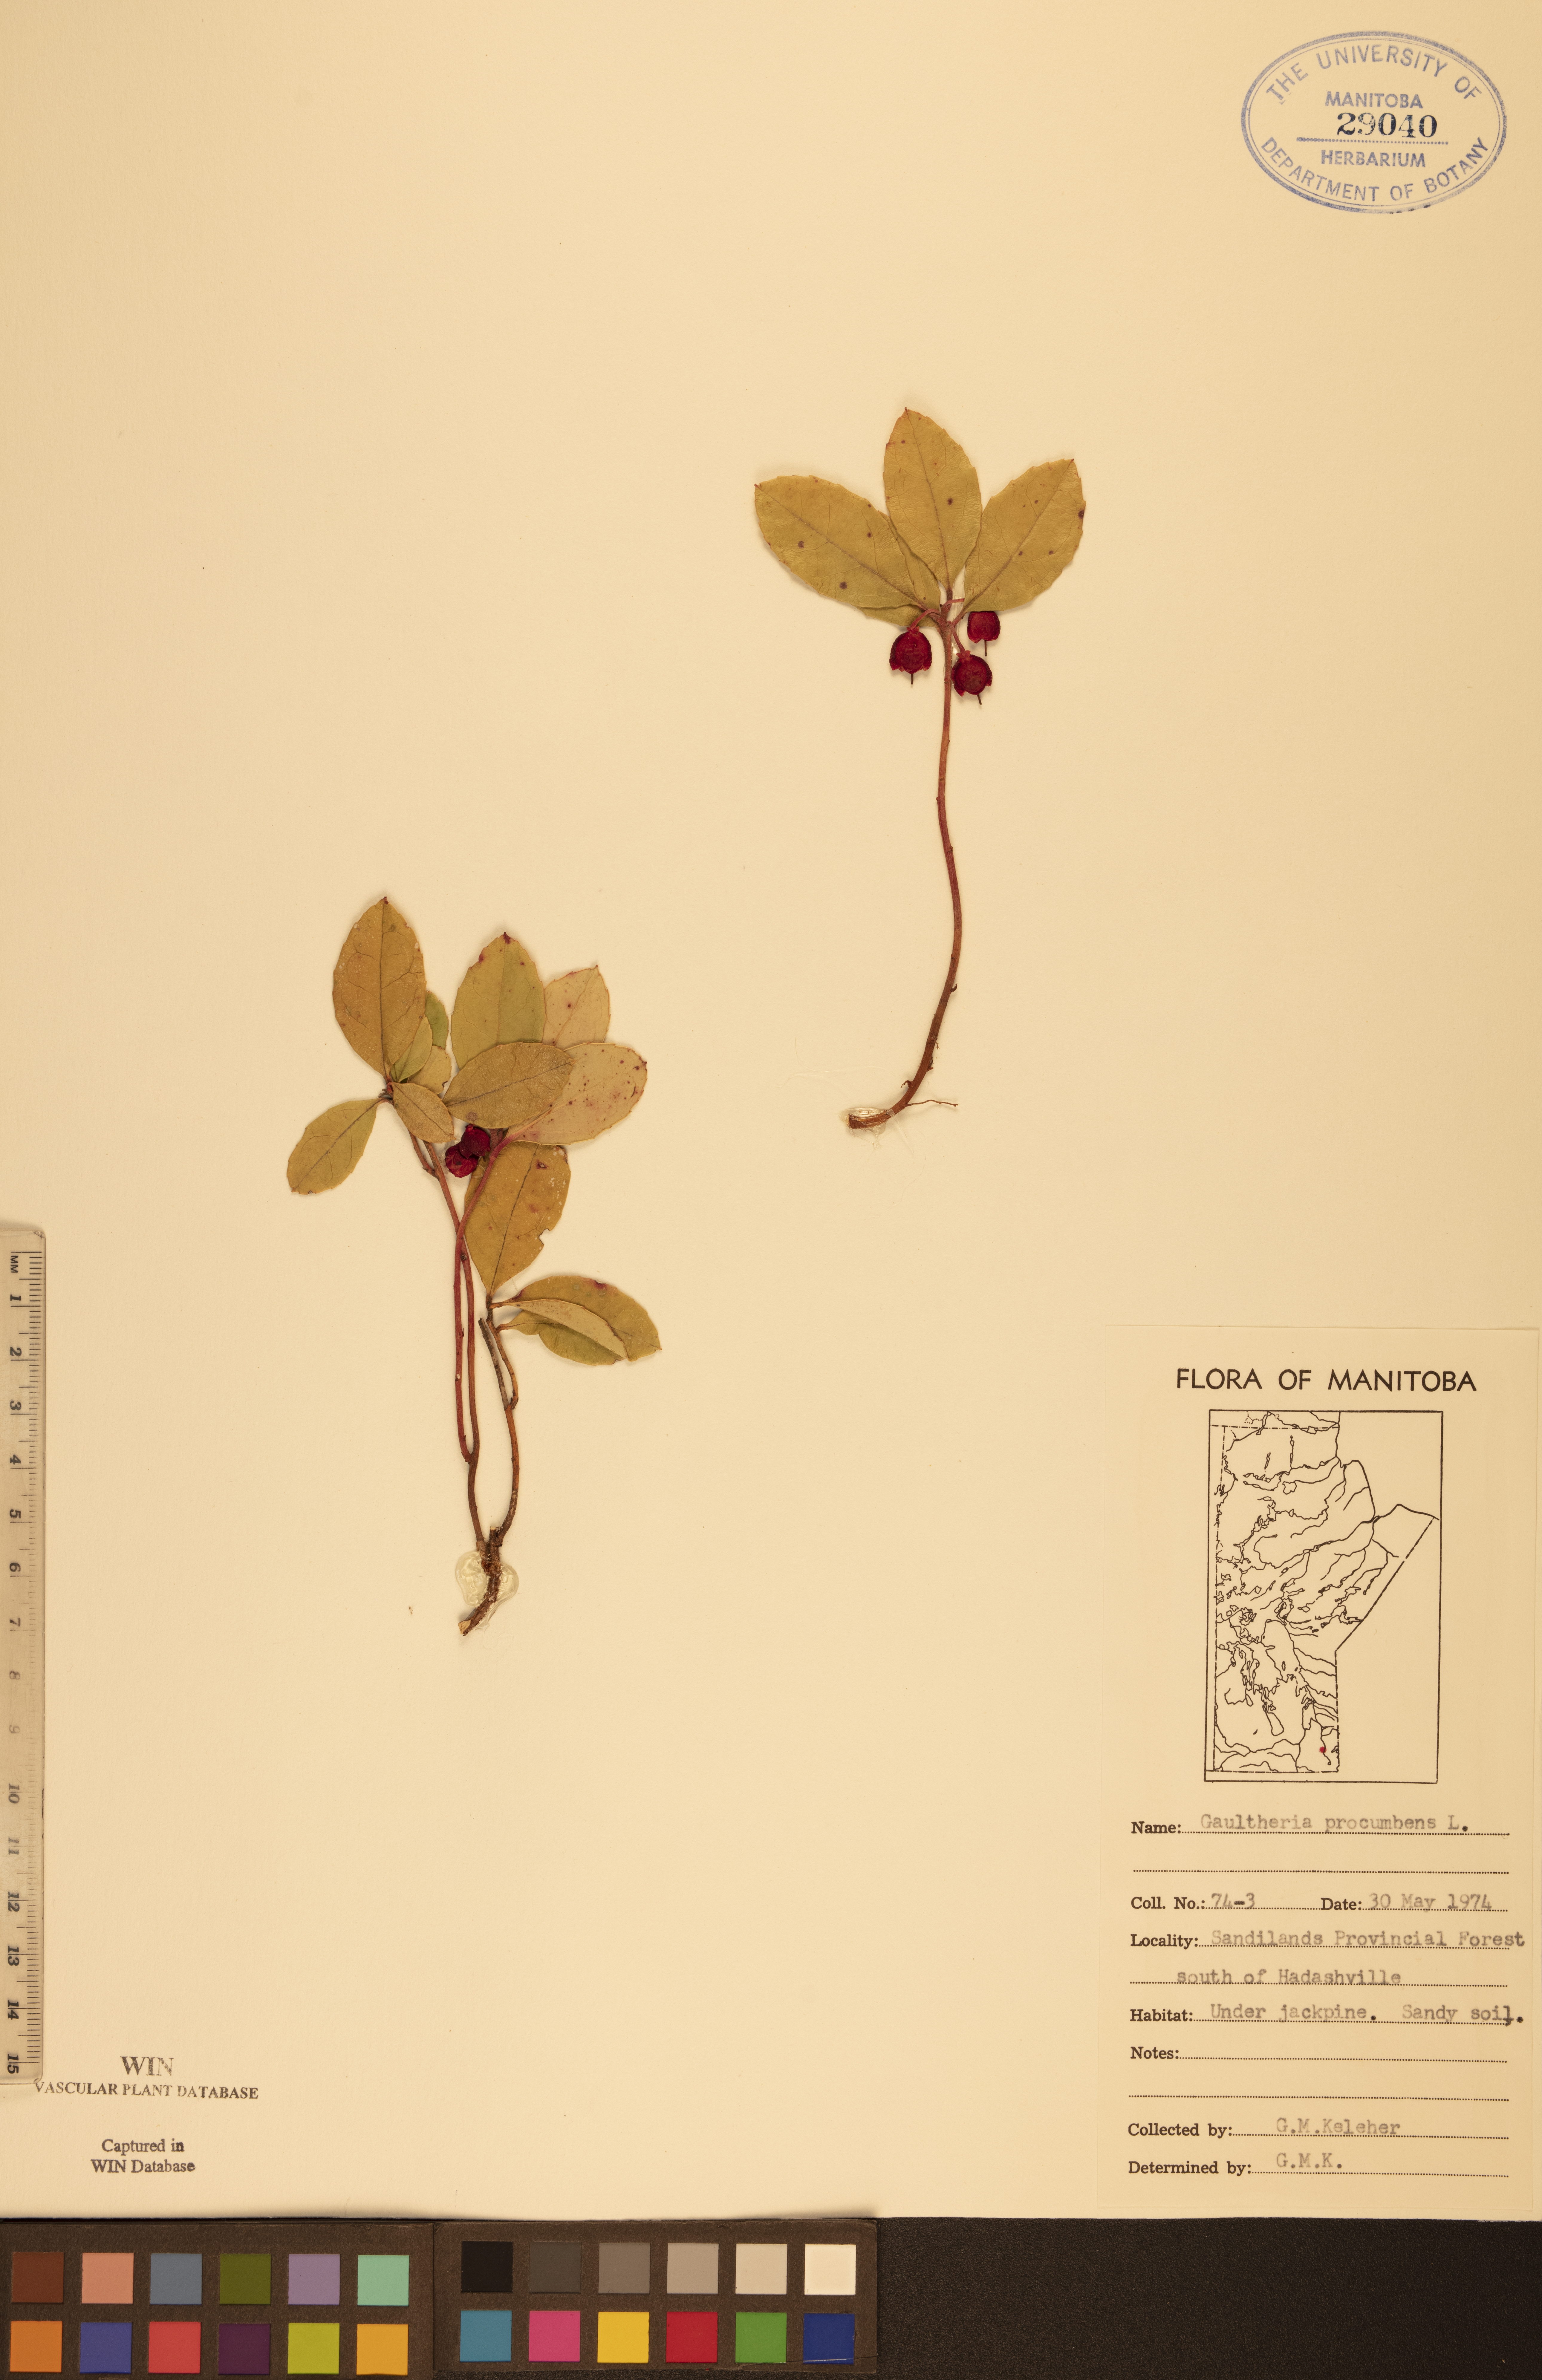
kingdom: Plantae
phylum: Tracheophyta
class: Magnoliopsida
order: Ericales
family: Ericaceae
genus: Gaultheria
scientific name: Gaultheria procumbens
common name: Checkerberry
